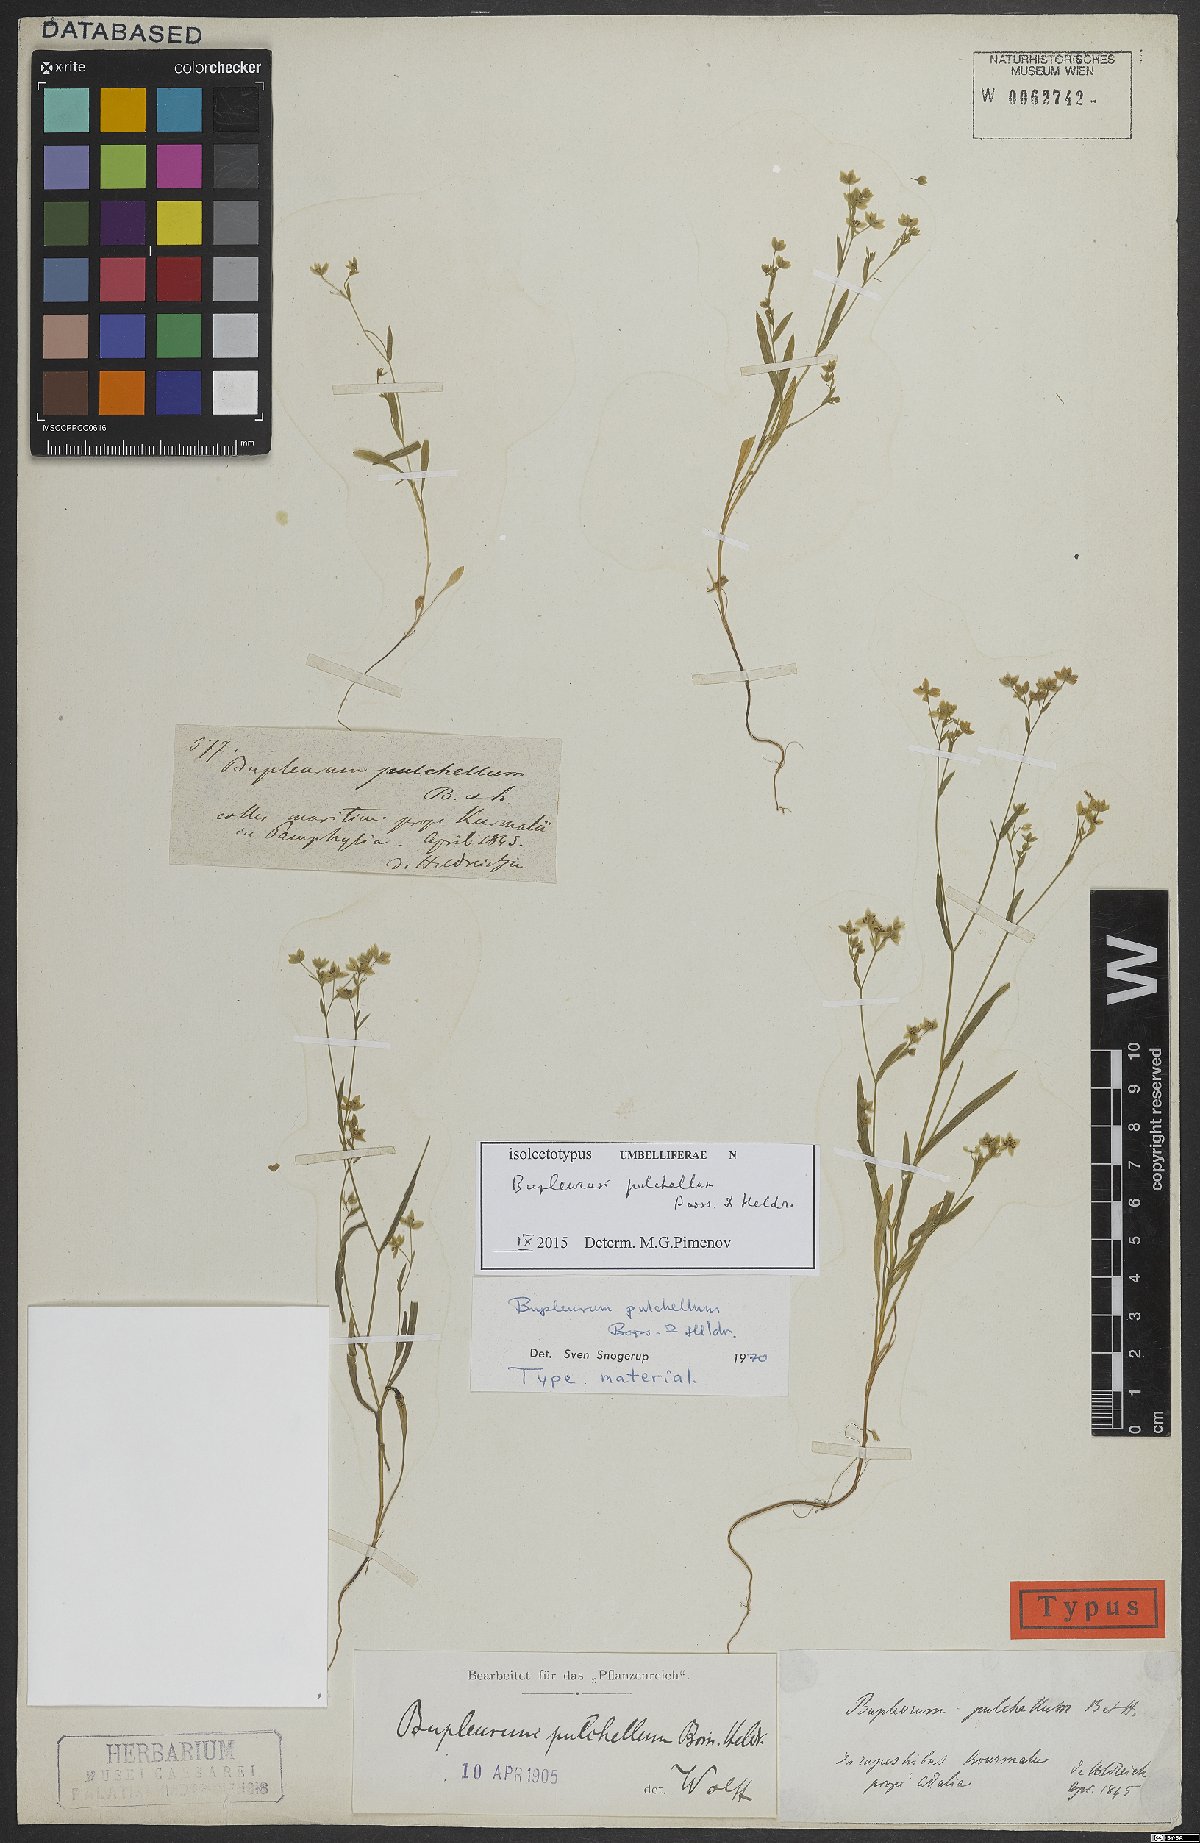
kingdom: Plantae
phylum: Tracheophyta
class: Magnoliopsida
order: Apiales
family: Apiaceae
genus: Bupleurum
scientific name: Bupleurum pulchellum
